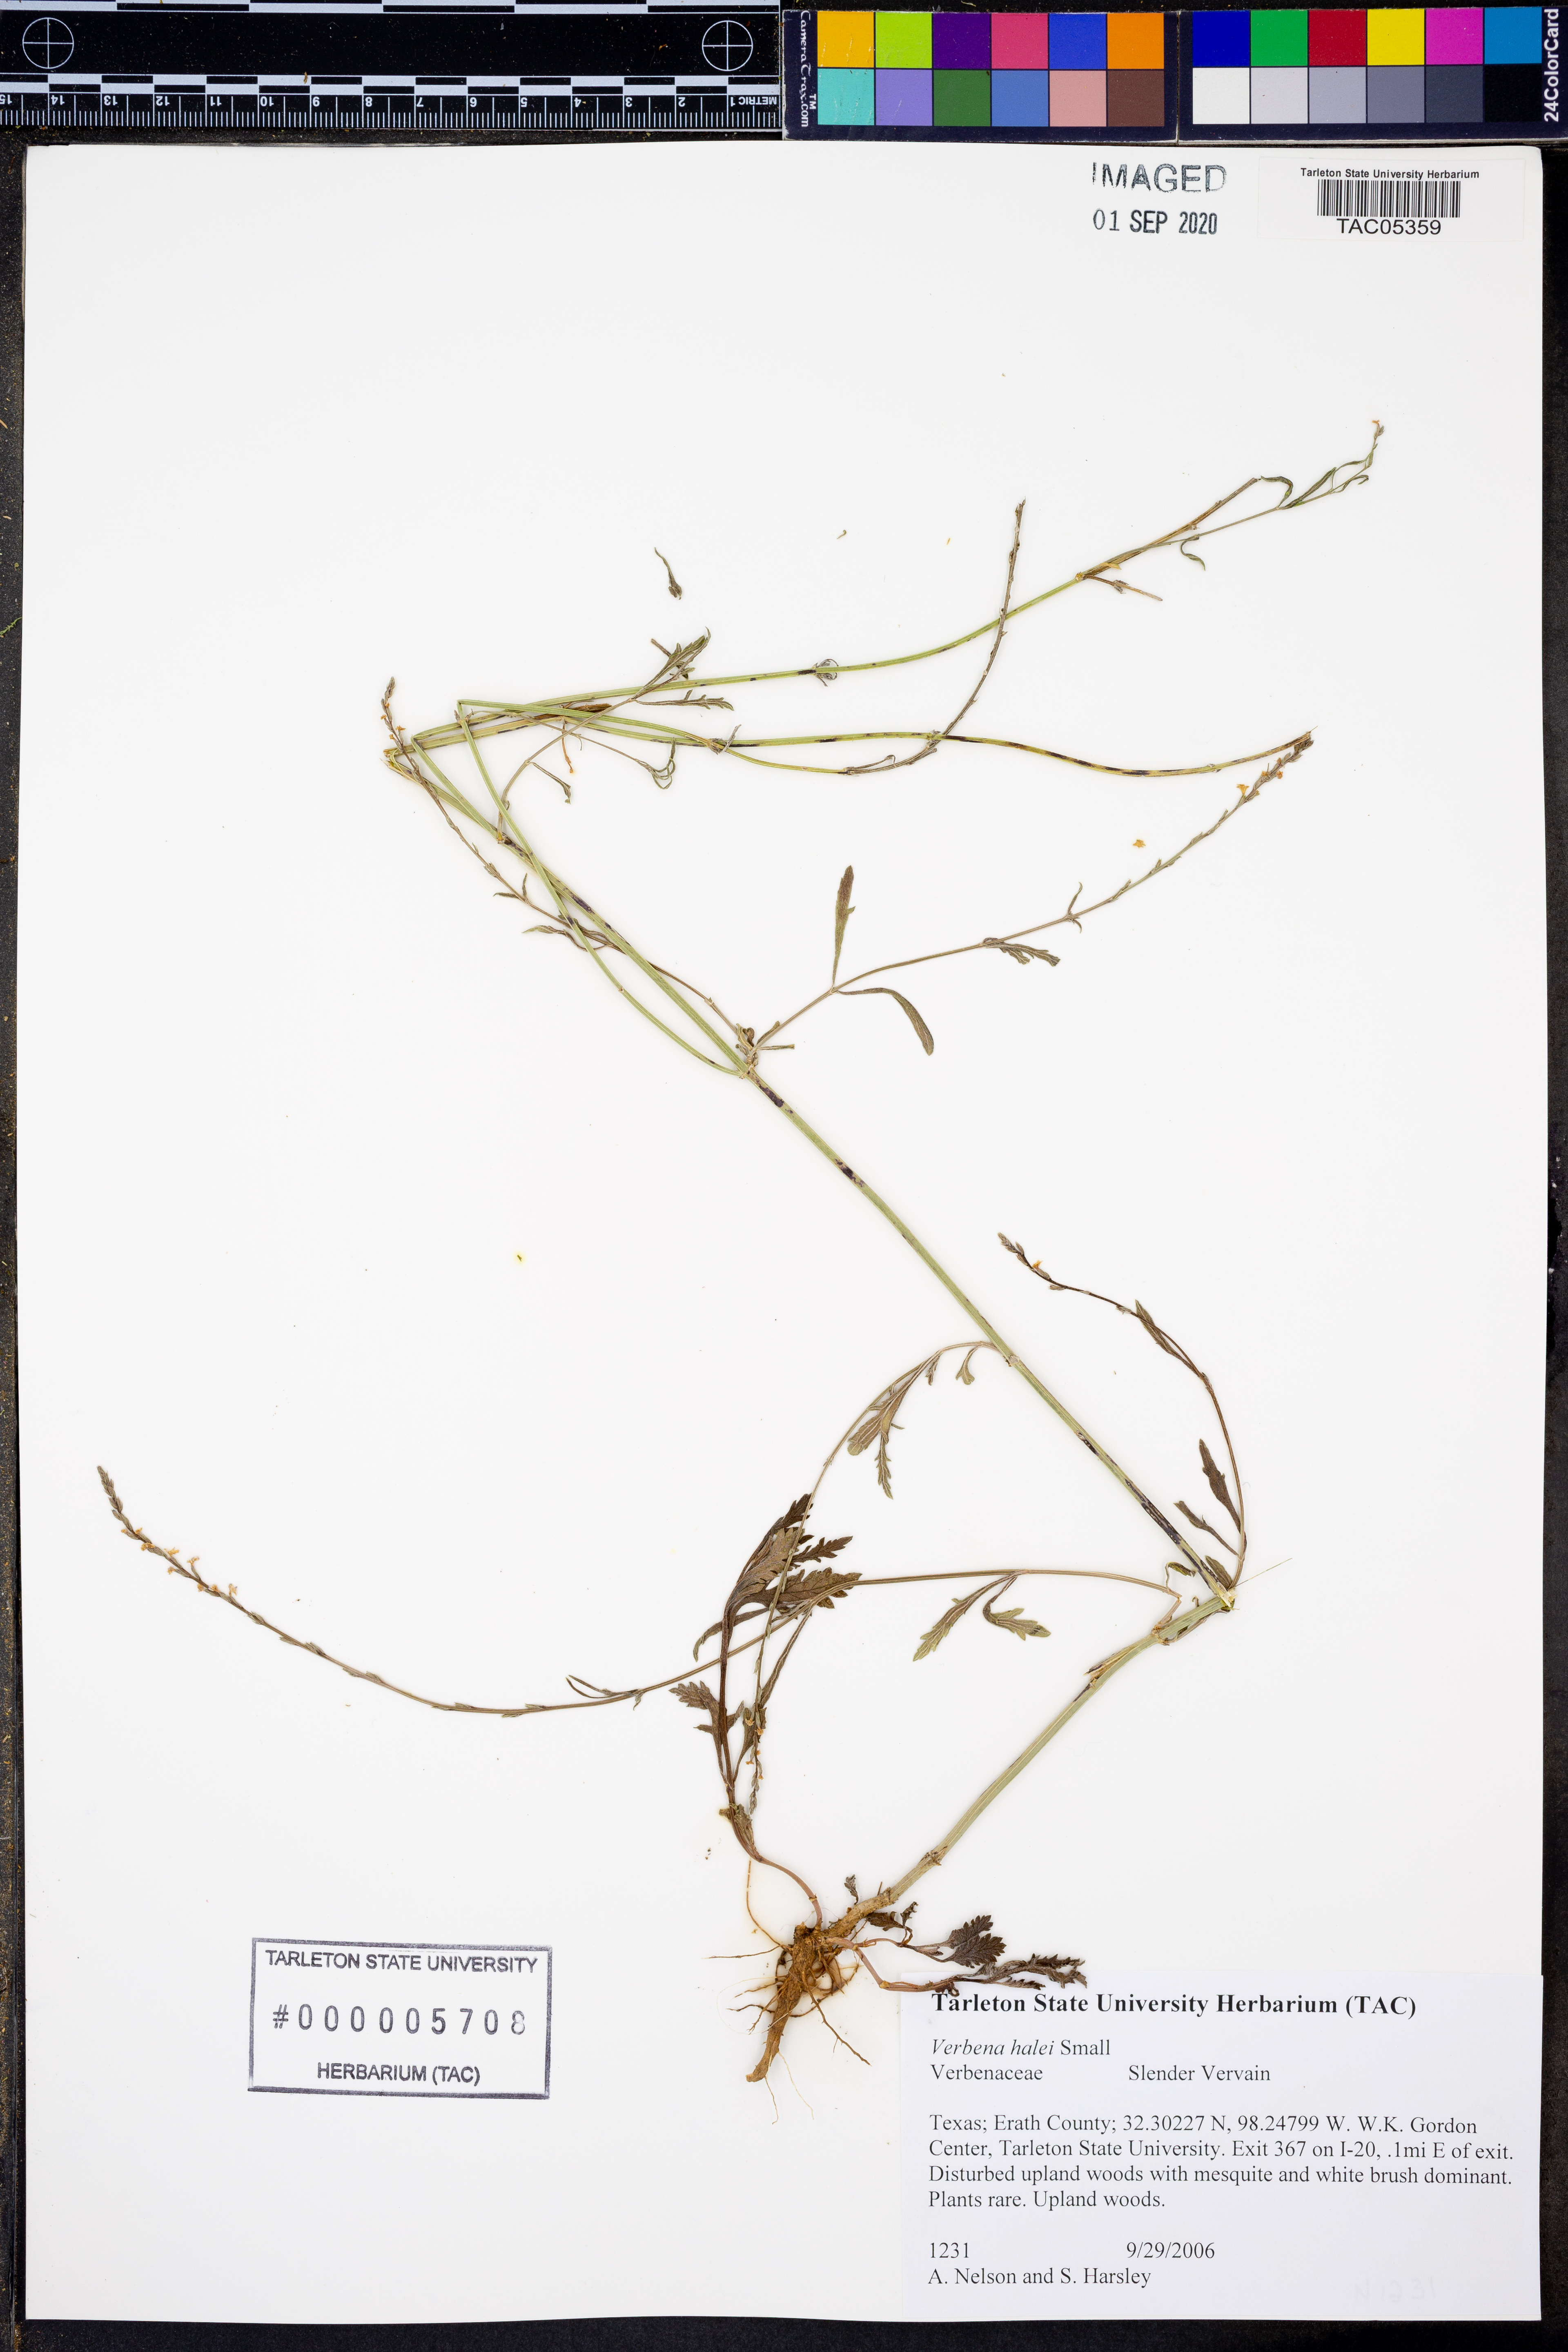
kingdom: Plantae
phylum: Tracheophyta
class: Magnoliopsida
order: Lamiales
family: Verbenaceae
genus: Verbena
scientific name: Verbena halei
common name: Texas vervain
